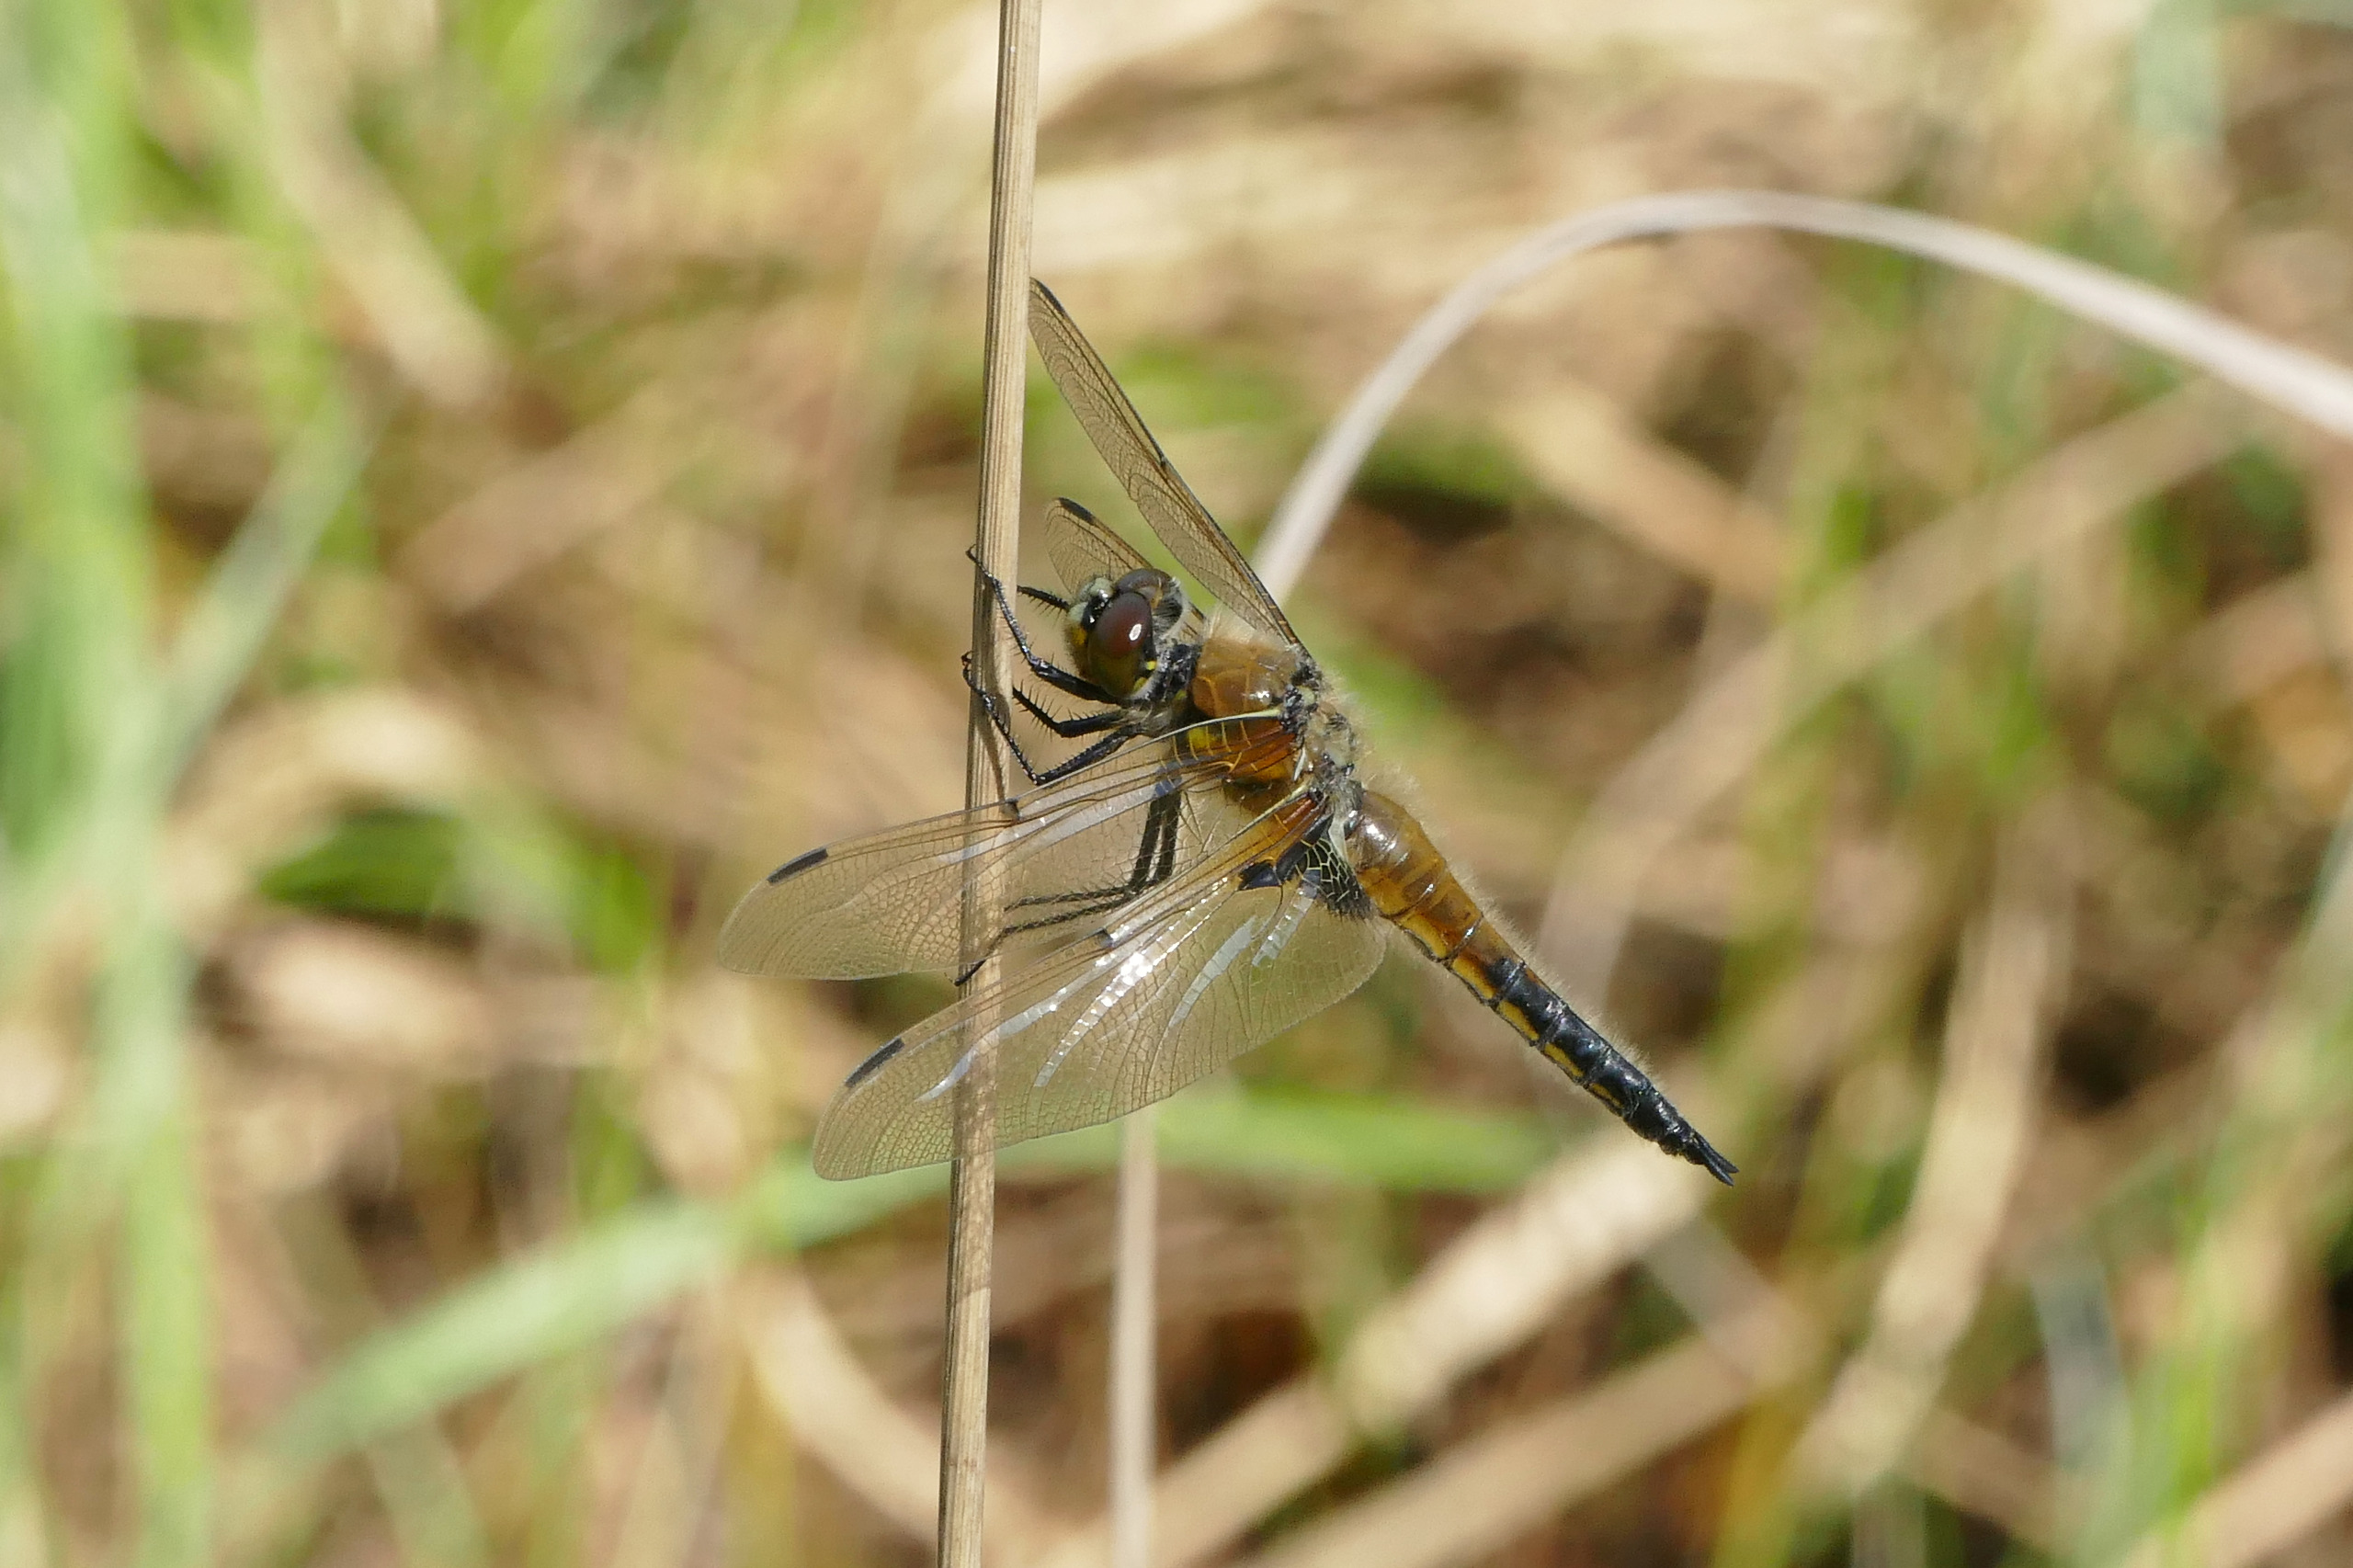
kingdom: Animalia
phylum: Arthropoda
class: Insecta
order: Odonata
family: Libellulidae
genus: Libellula
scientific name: Libellula quadrimaculata
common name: Fireplettet libel
